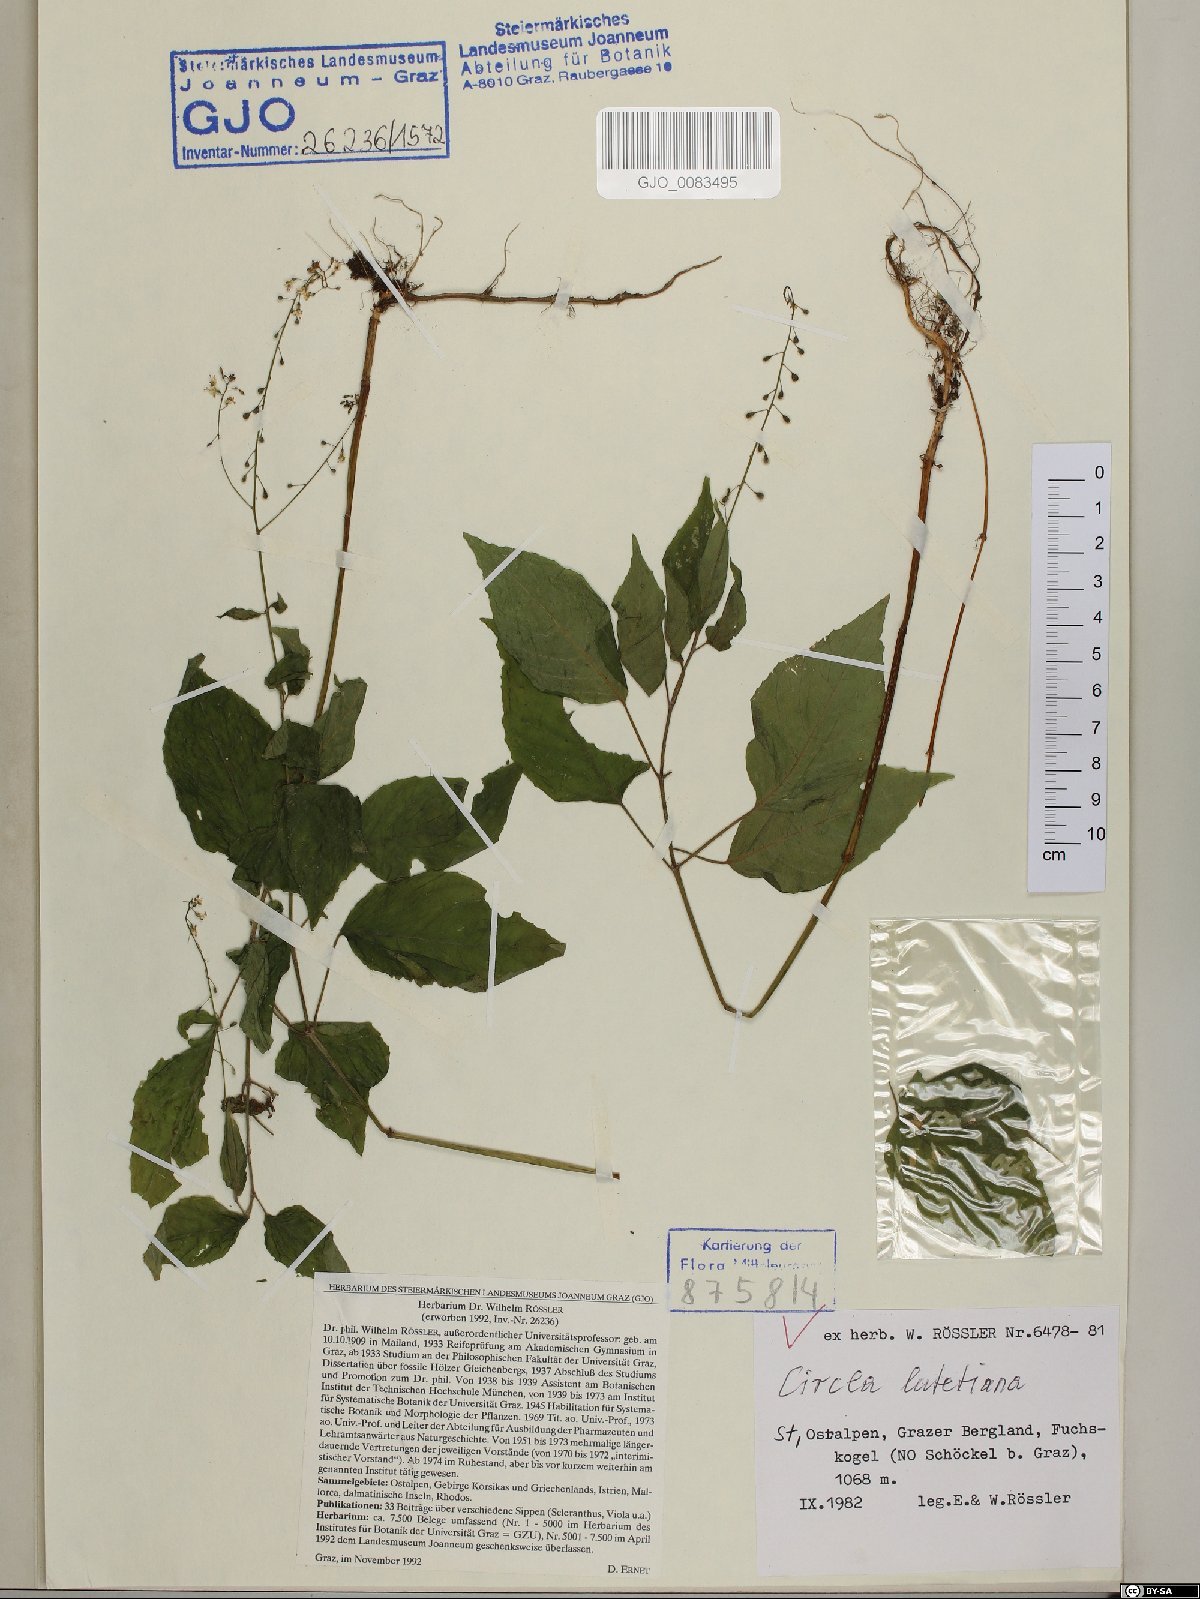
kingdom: Plantae
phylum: Tracheophyta
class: Magnoliopsida
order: Myrtales
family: Onagraceae
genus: Circaea
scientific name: Circaea lutetiana
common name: Enchanter's-nightshade
